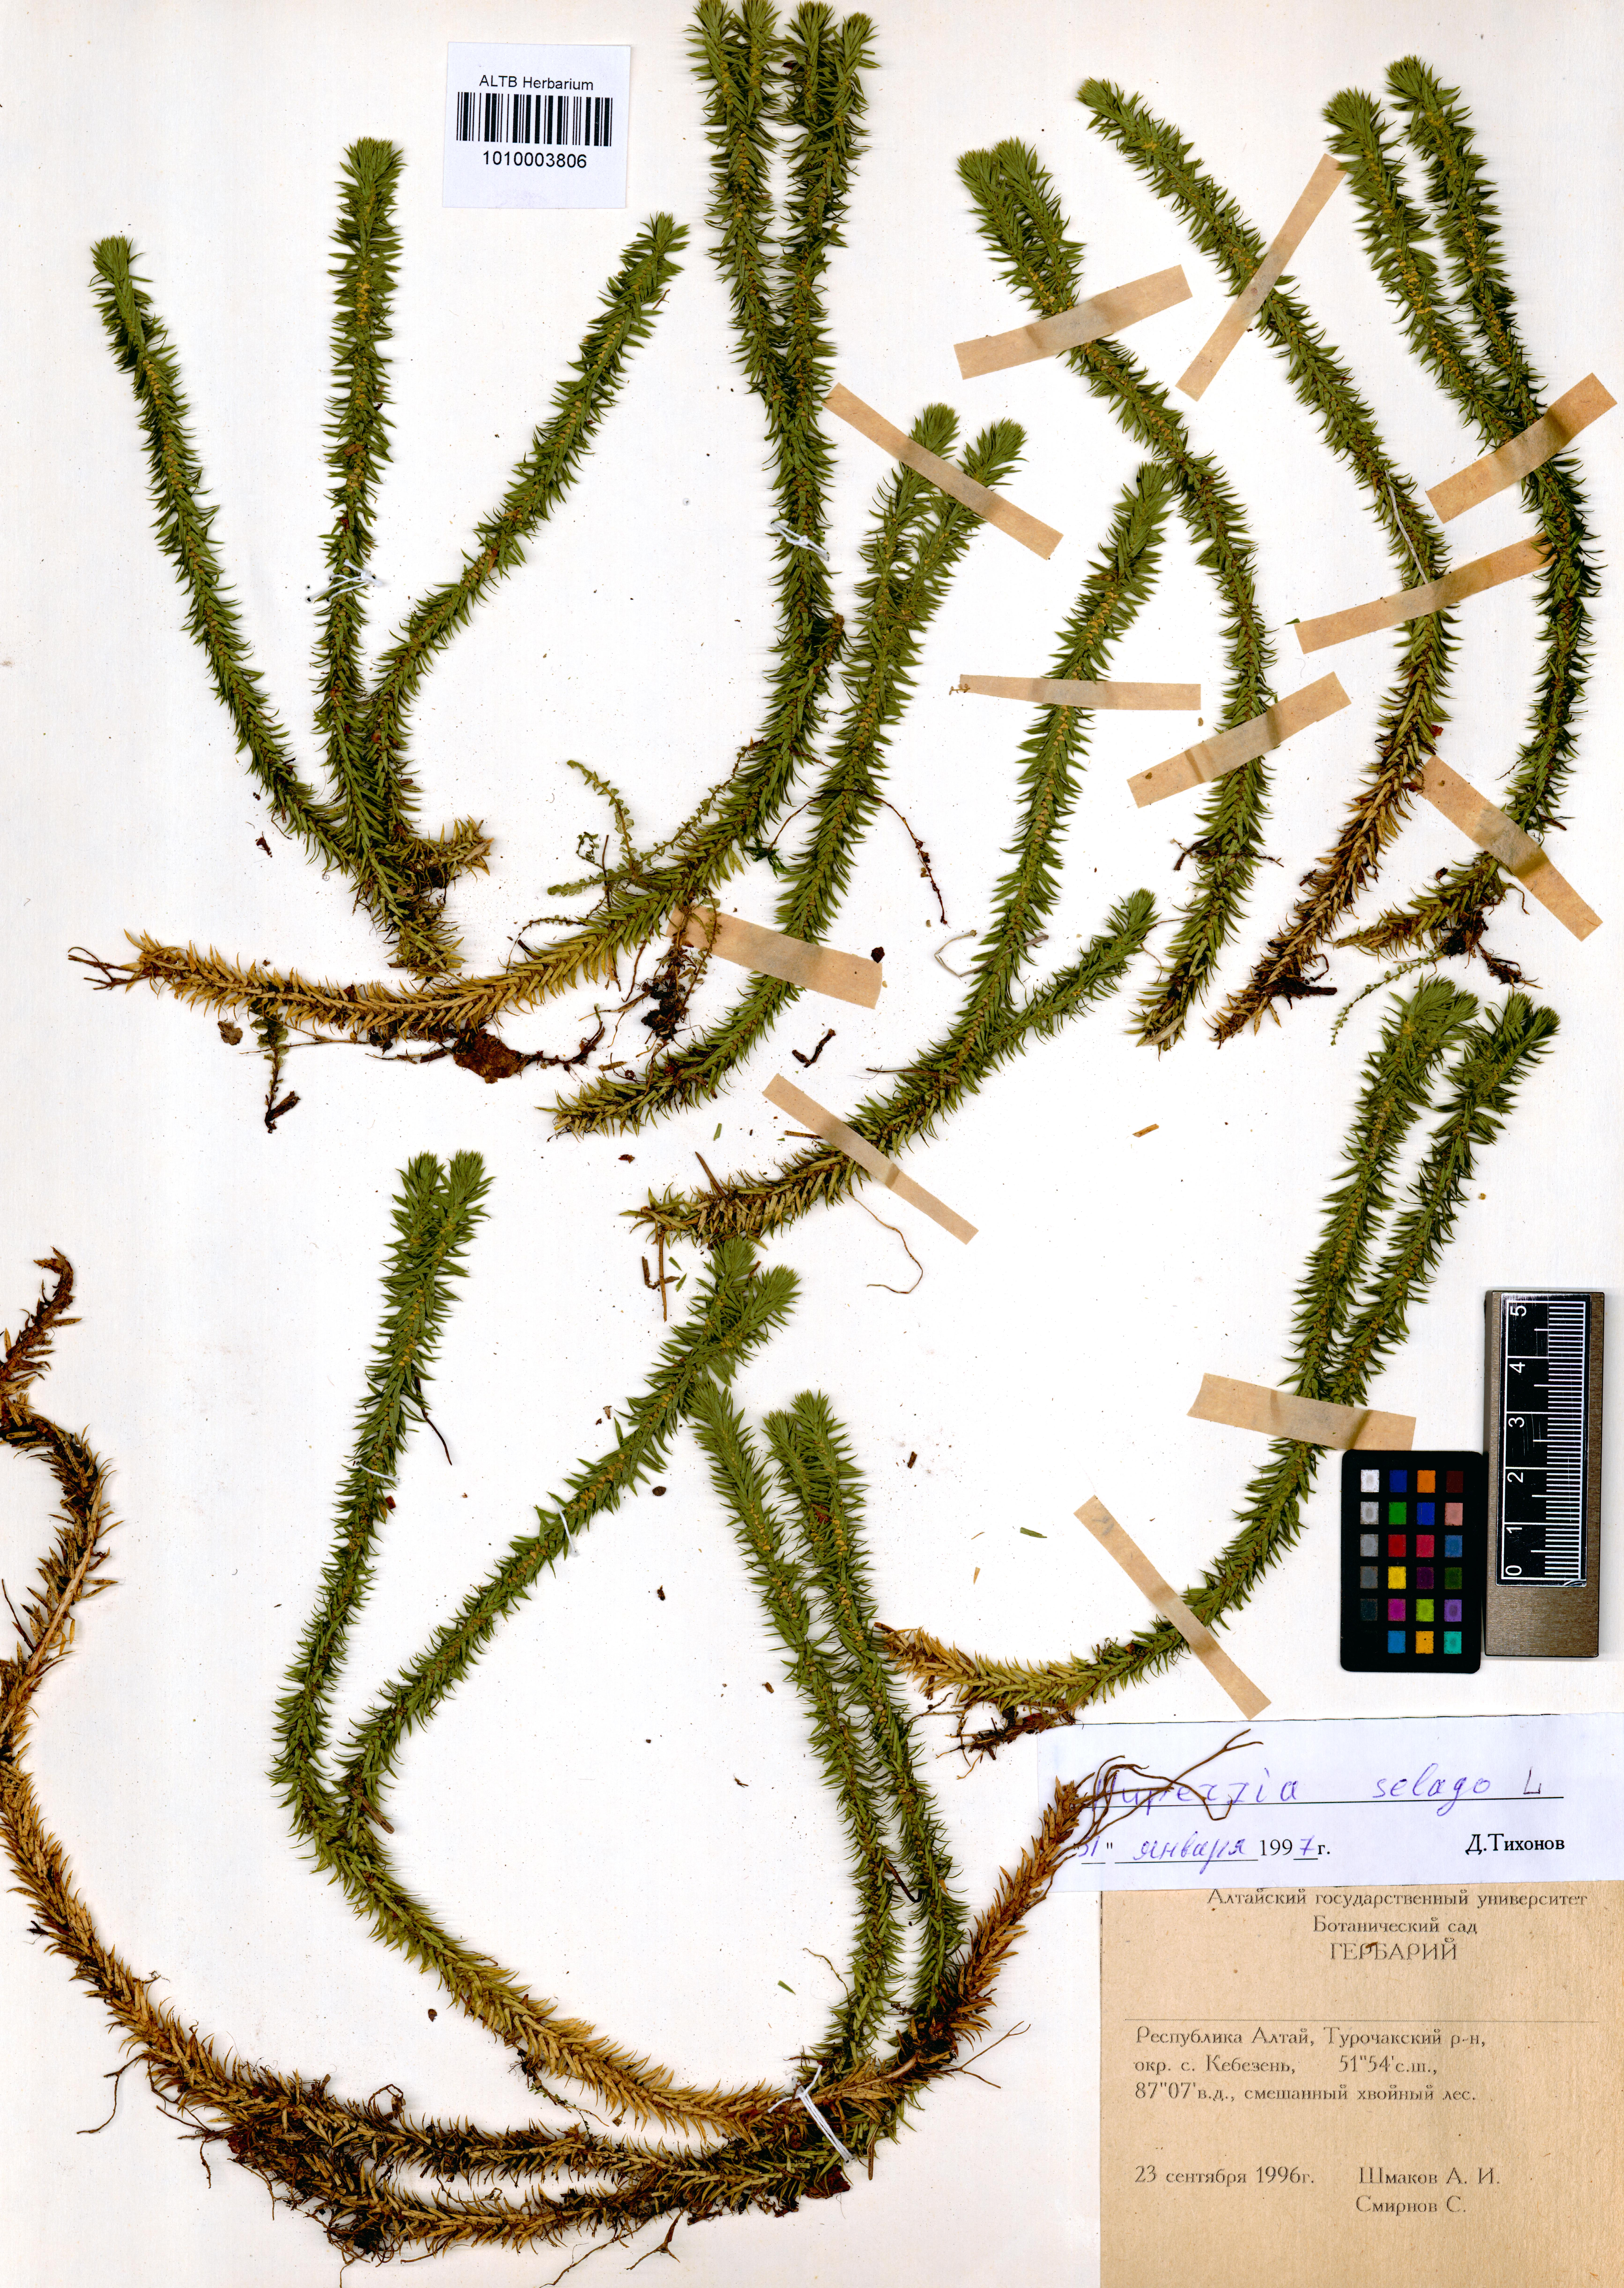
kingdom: Plantae
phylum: Tracheophyta
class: Lycopodiopsida
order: Lycopodiales
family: Lycopodiaceae
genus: Huperzia
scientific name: Huperzia selago
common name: Northern firmoss
